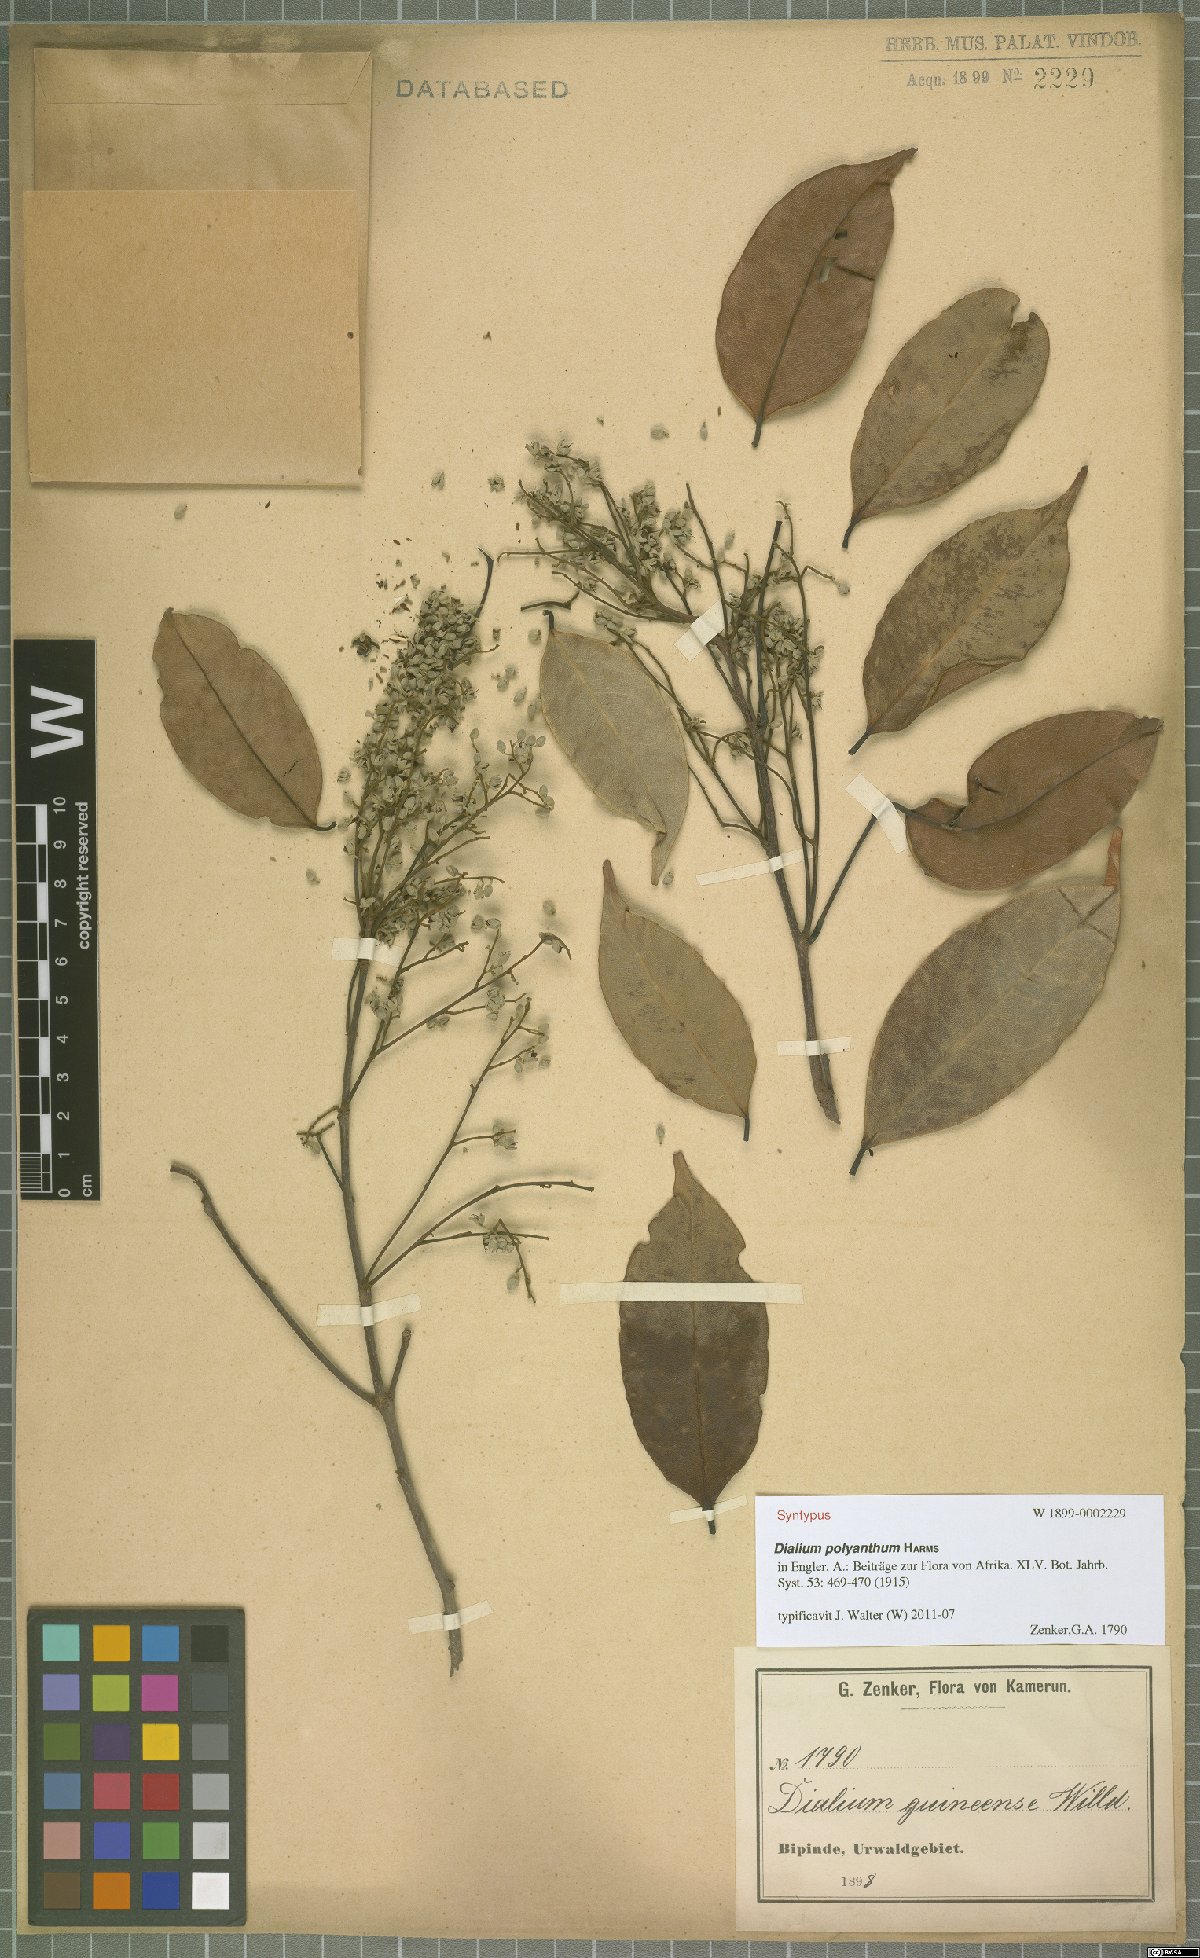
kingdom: Plantae
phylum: Tracheophyta
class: Magnoliopsida
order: Fabales
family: Fabaceae
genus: Dialium
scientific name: Dialium polyanthum
